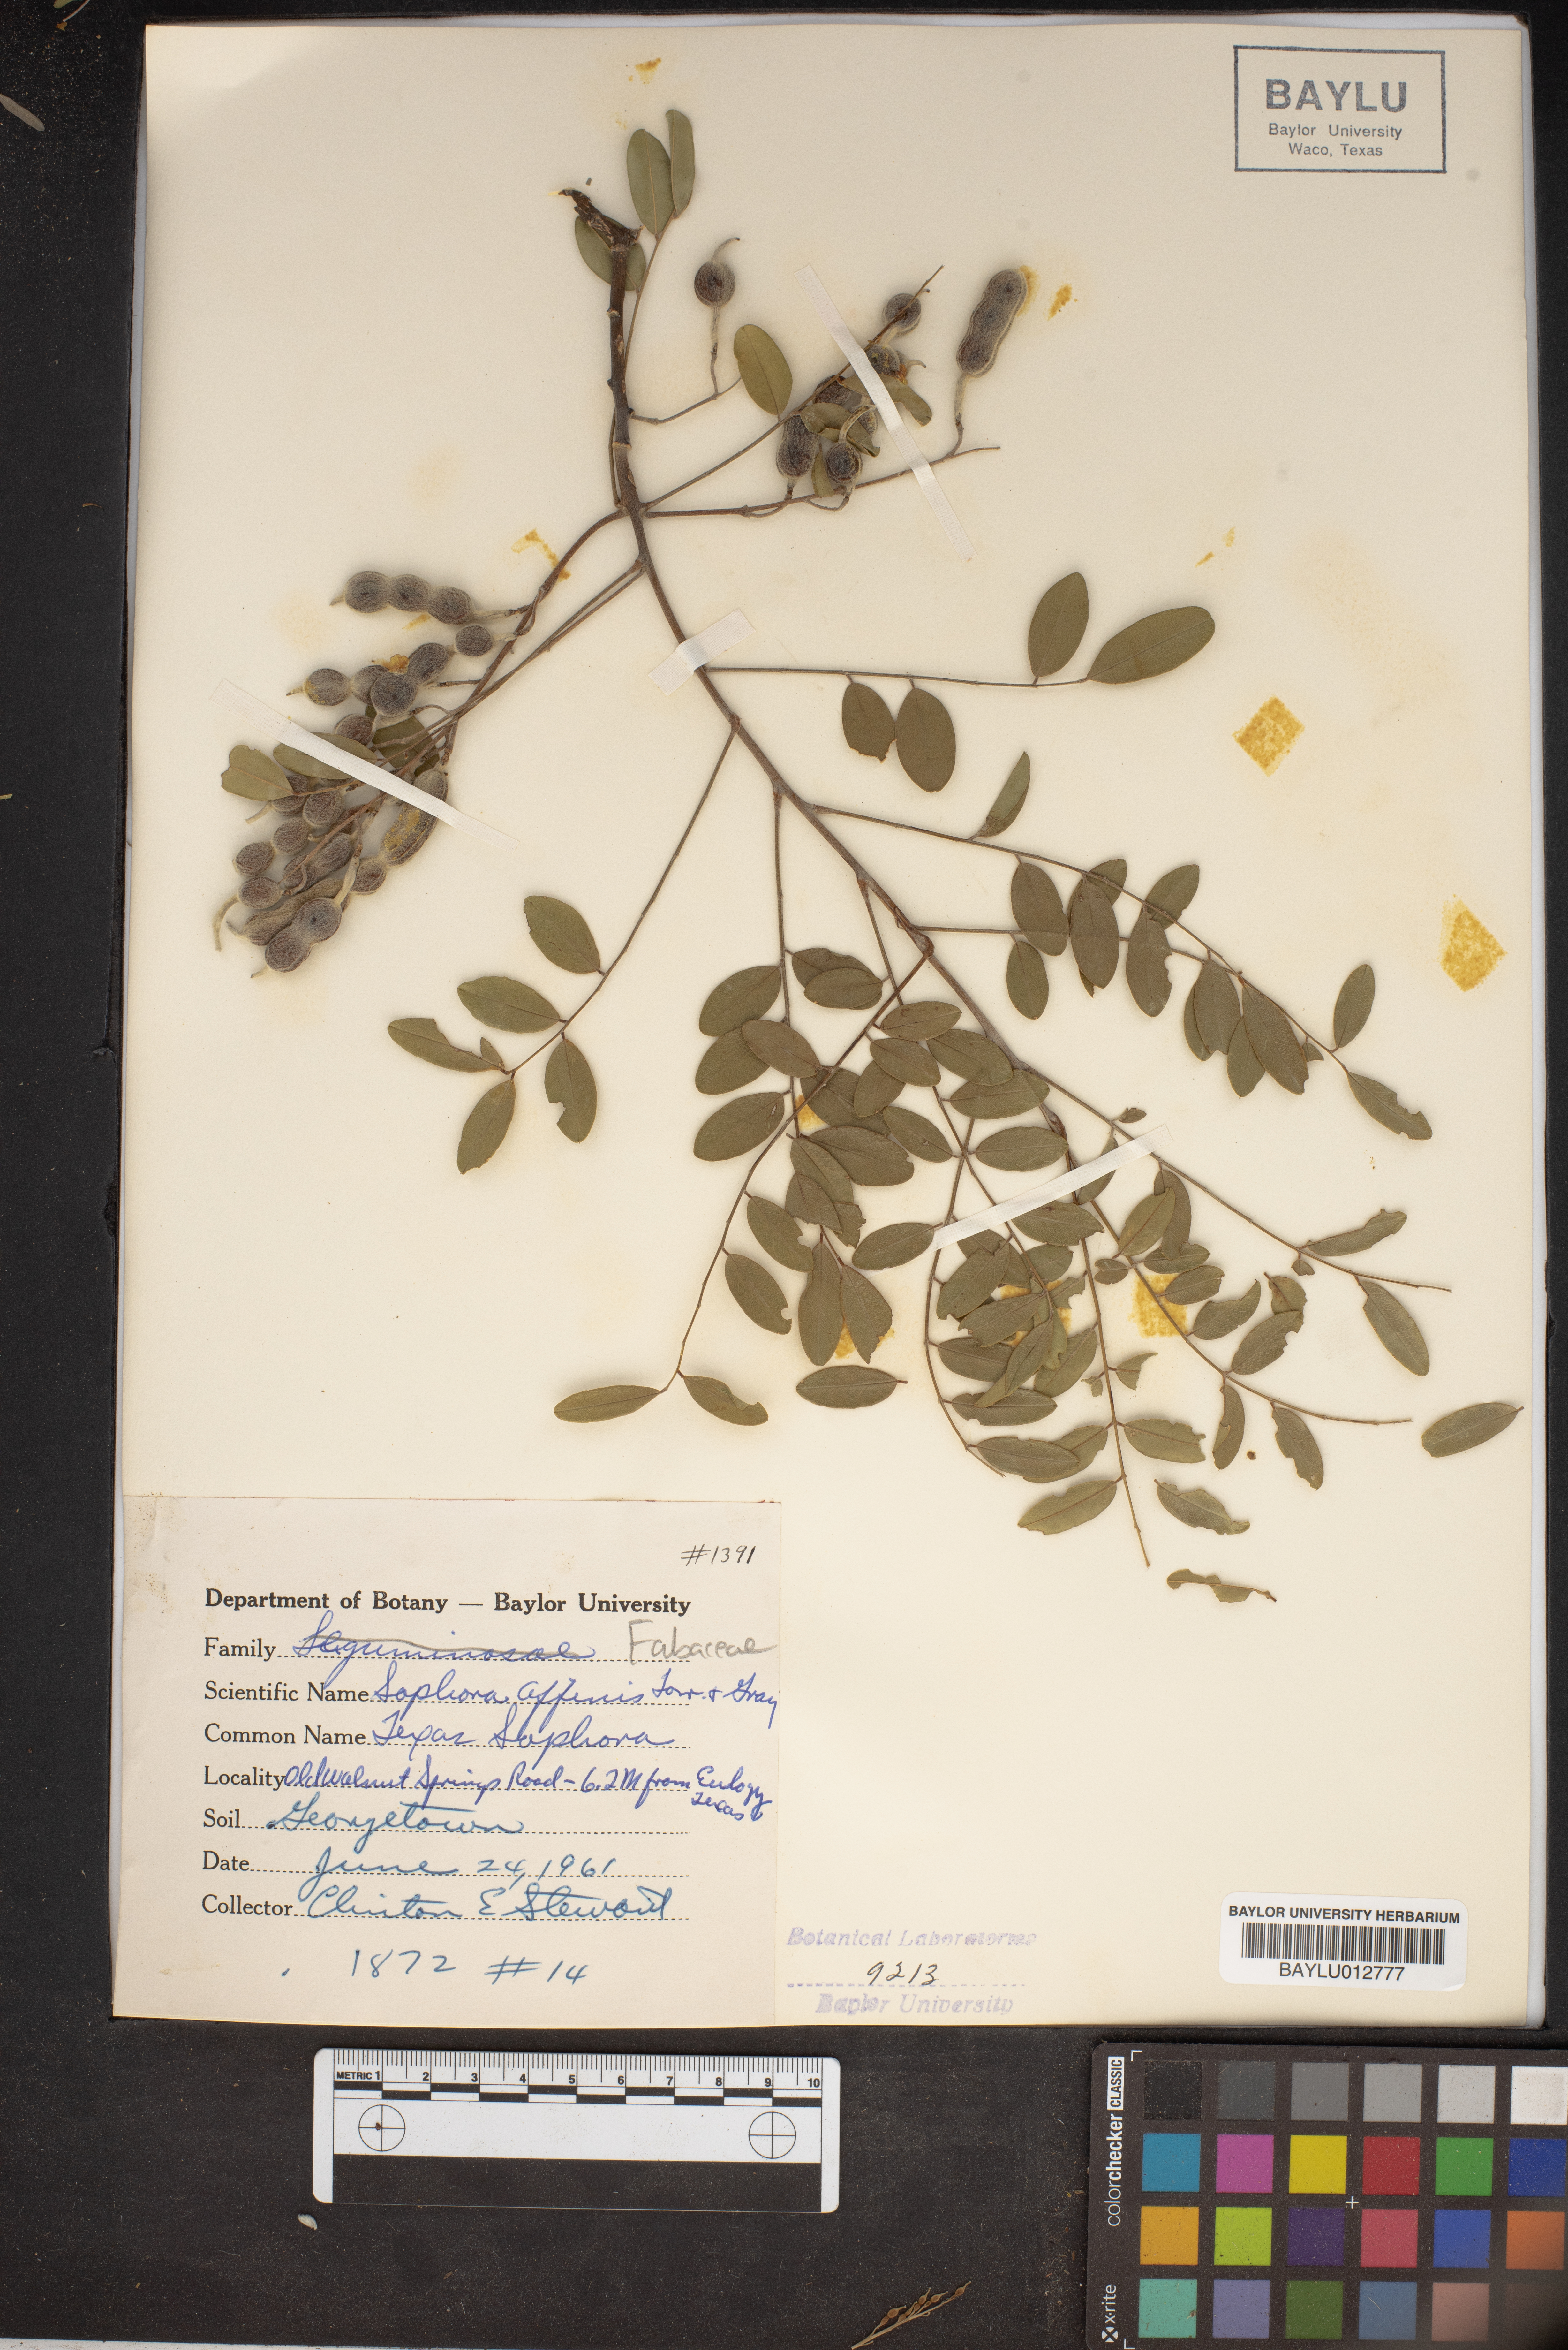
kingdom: Plantae
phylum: Tracheophyta
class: Magnoliopsida
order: Fabales
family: Fabaceae
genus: Styphnolobium
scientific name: Styphnolobium affine
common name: Texas sophora
